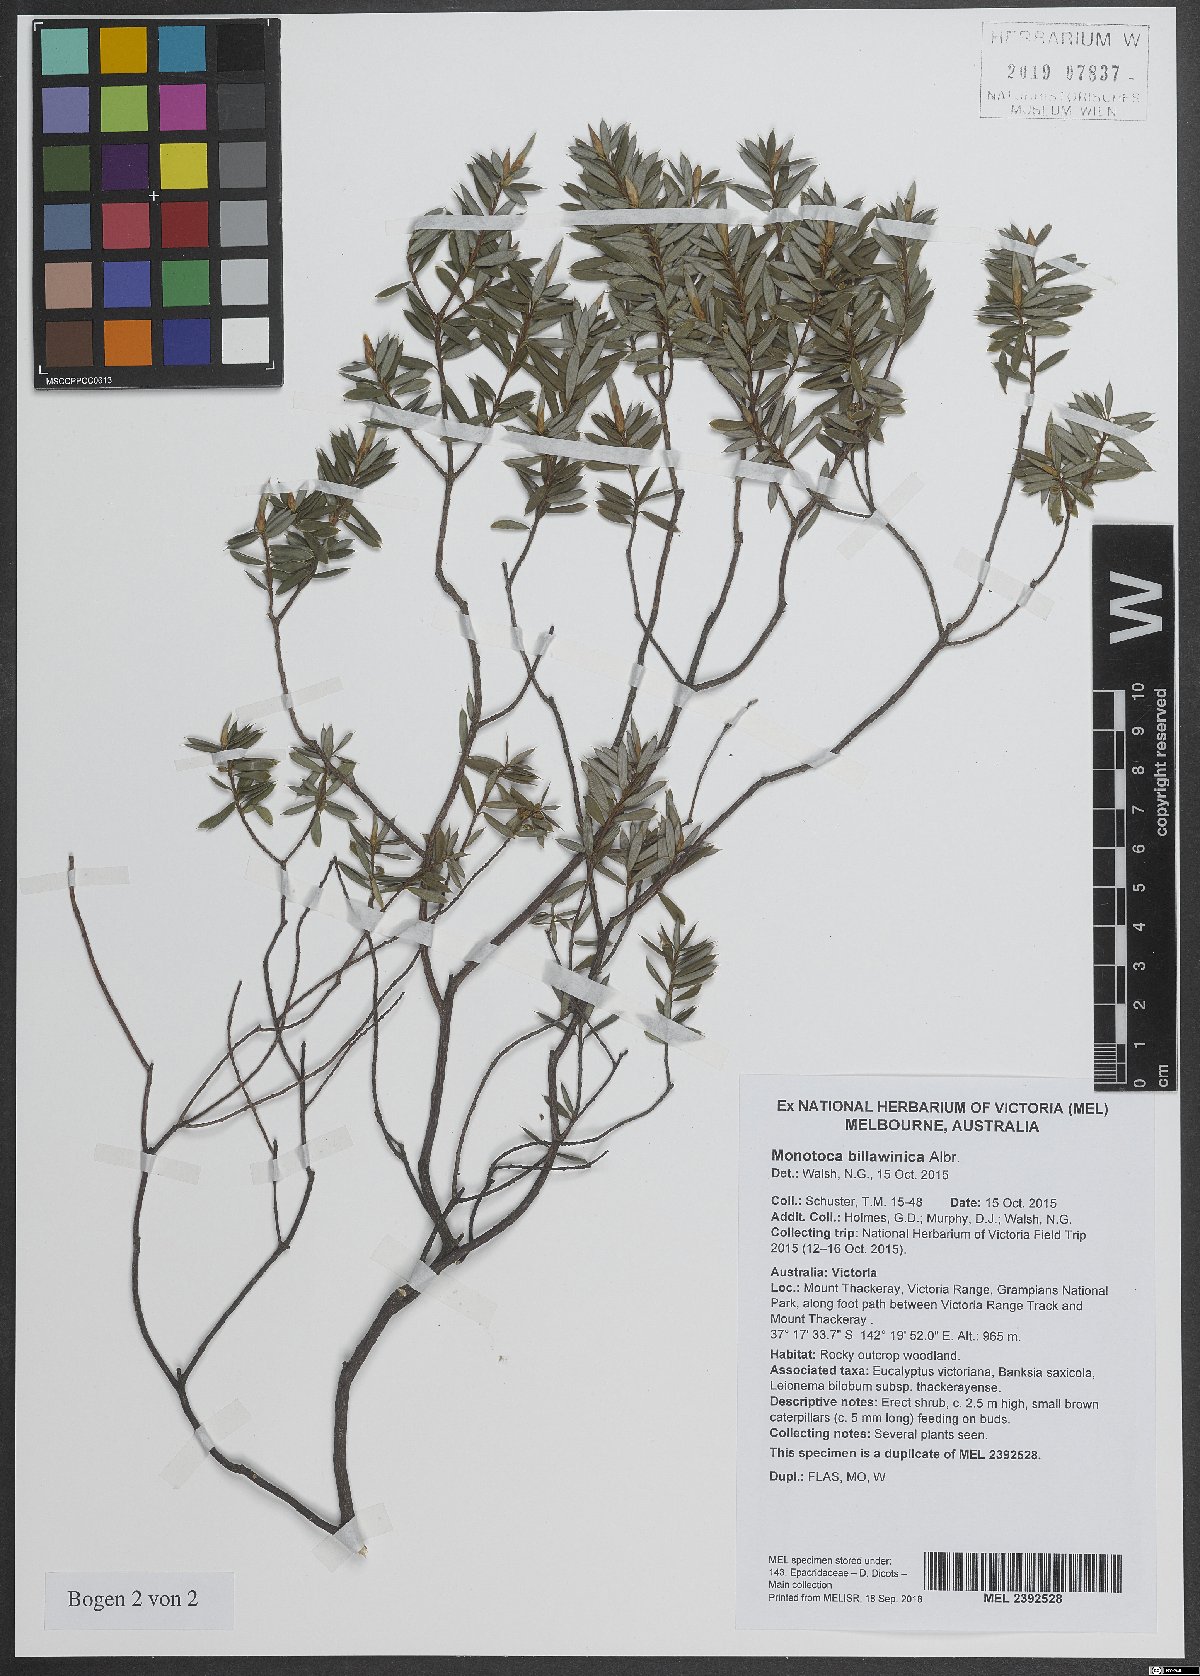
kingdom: Plantae
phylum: Tracheophyta
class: Magnoliopsida
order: Ericales
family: Ericaceae
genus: Monotoca
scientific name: Monotoca billawinica
